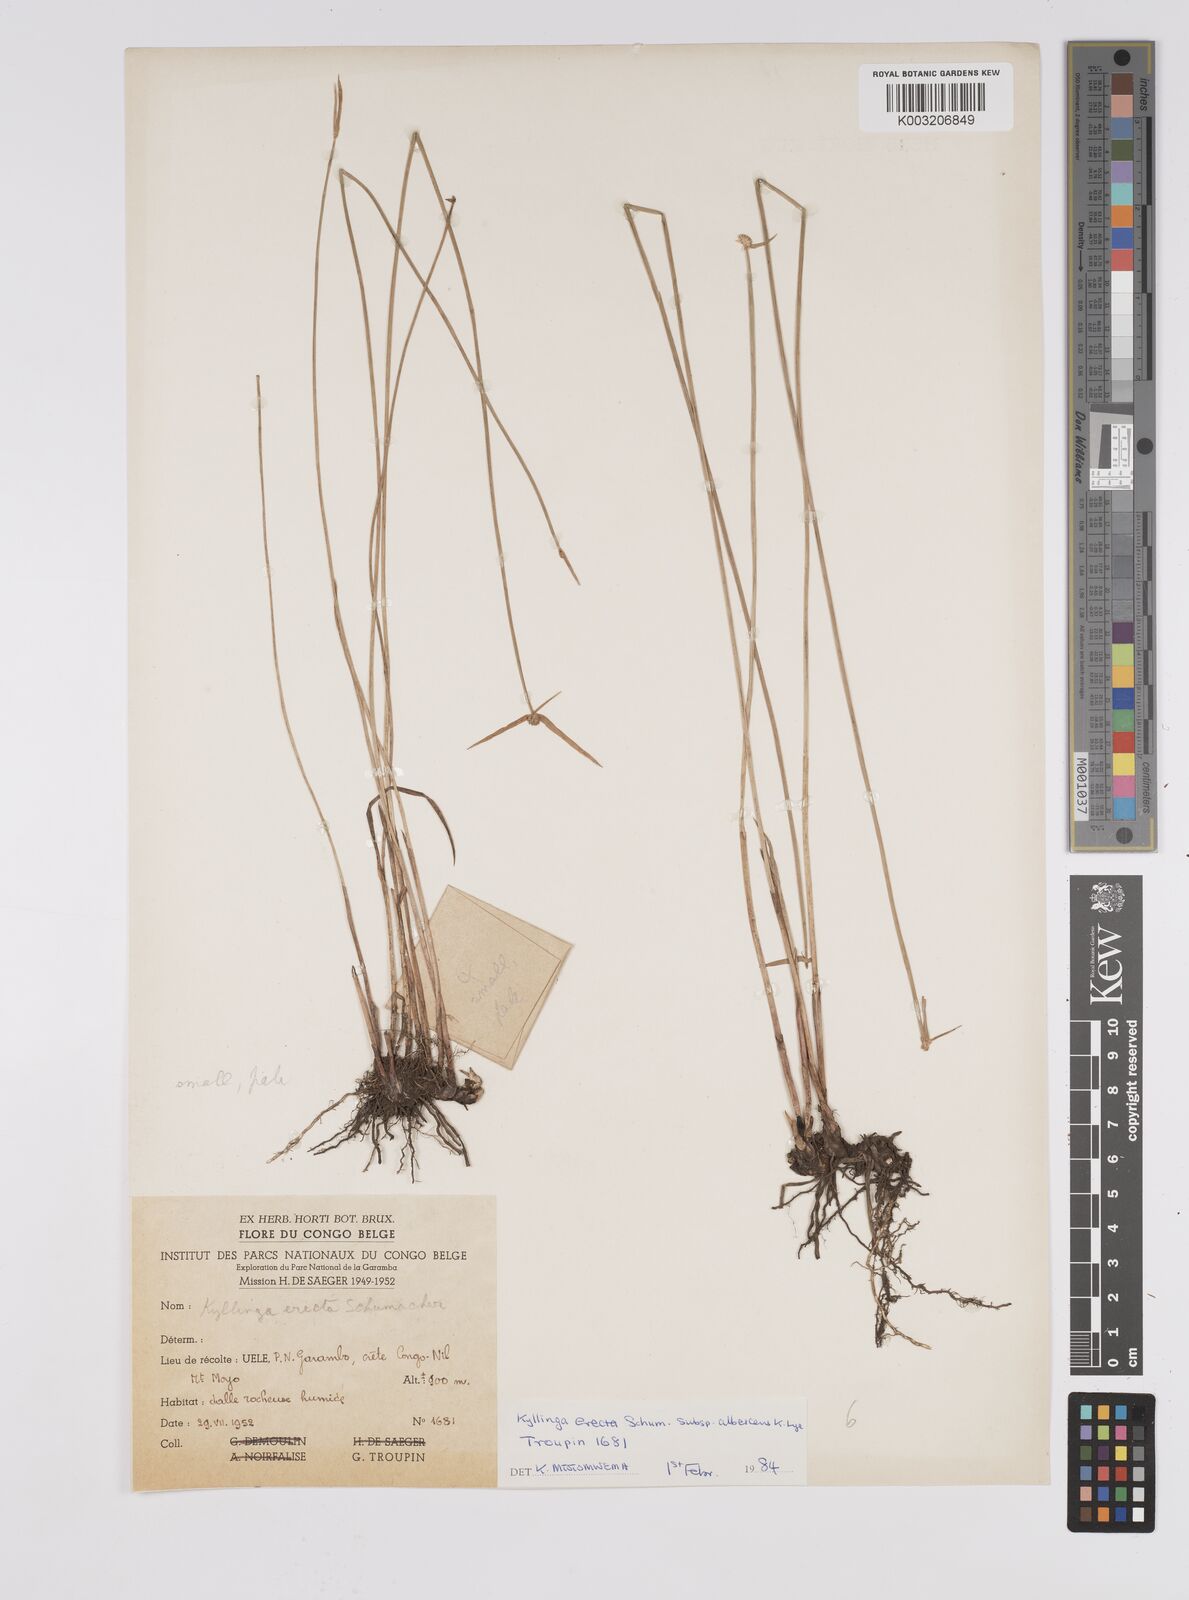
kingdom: Plantae
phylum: Tracheophyta
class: Liliopsida
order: Poales
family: Cyperaceae
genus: Cyperus
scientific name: Cyperus erectus
